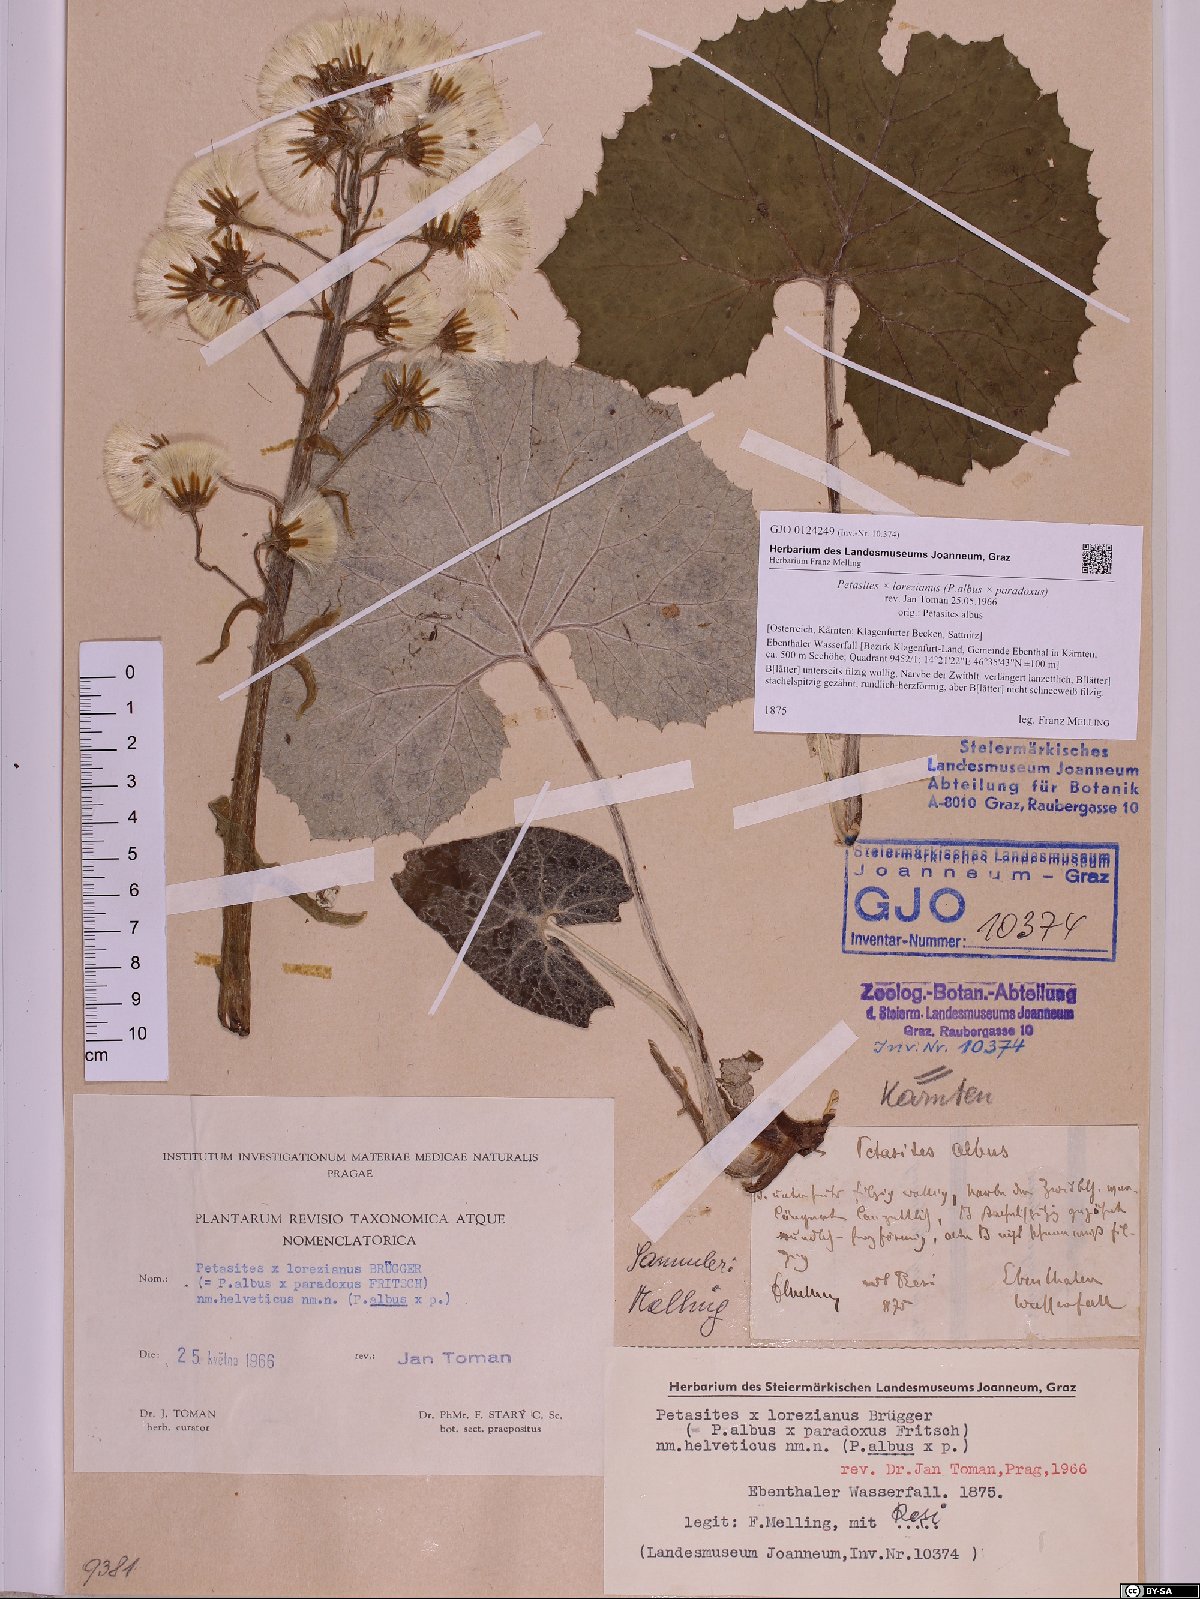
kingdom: Plantae
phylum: Tracheophyta
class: Magnoliopsida
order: Asterales
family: Asteraceae
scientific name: Asteraceae
